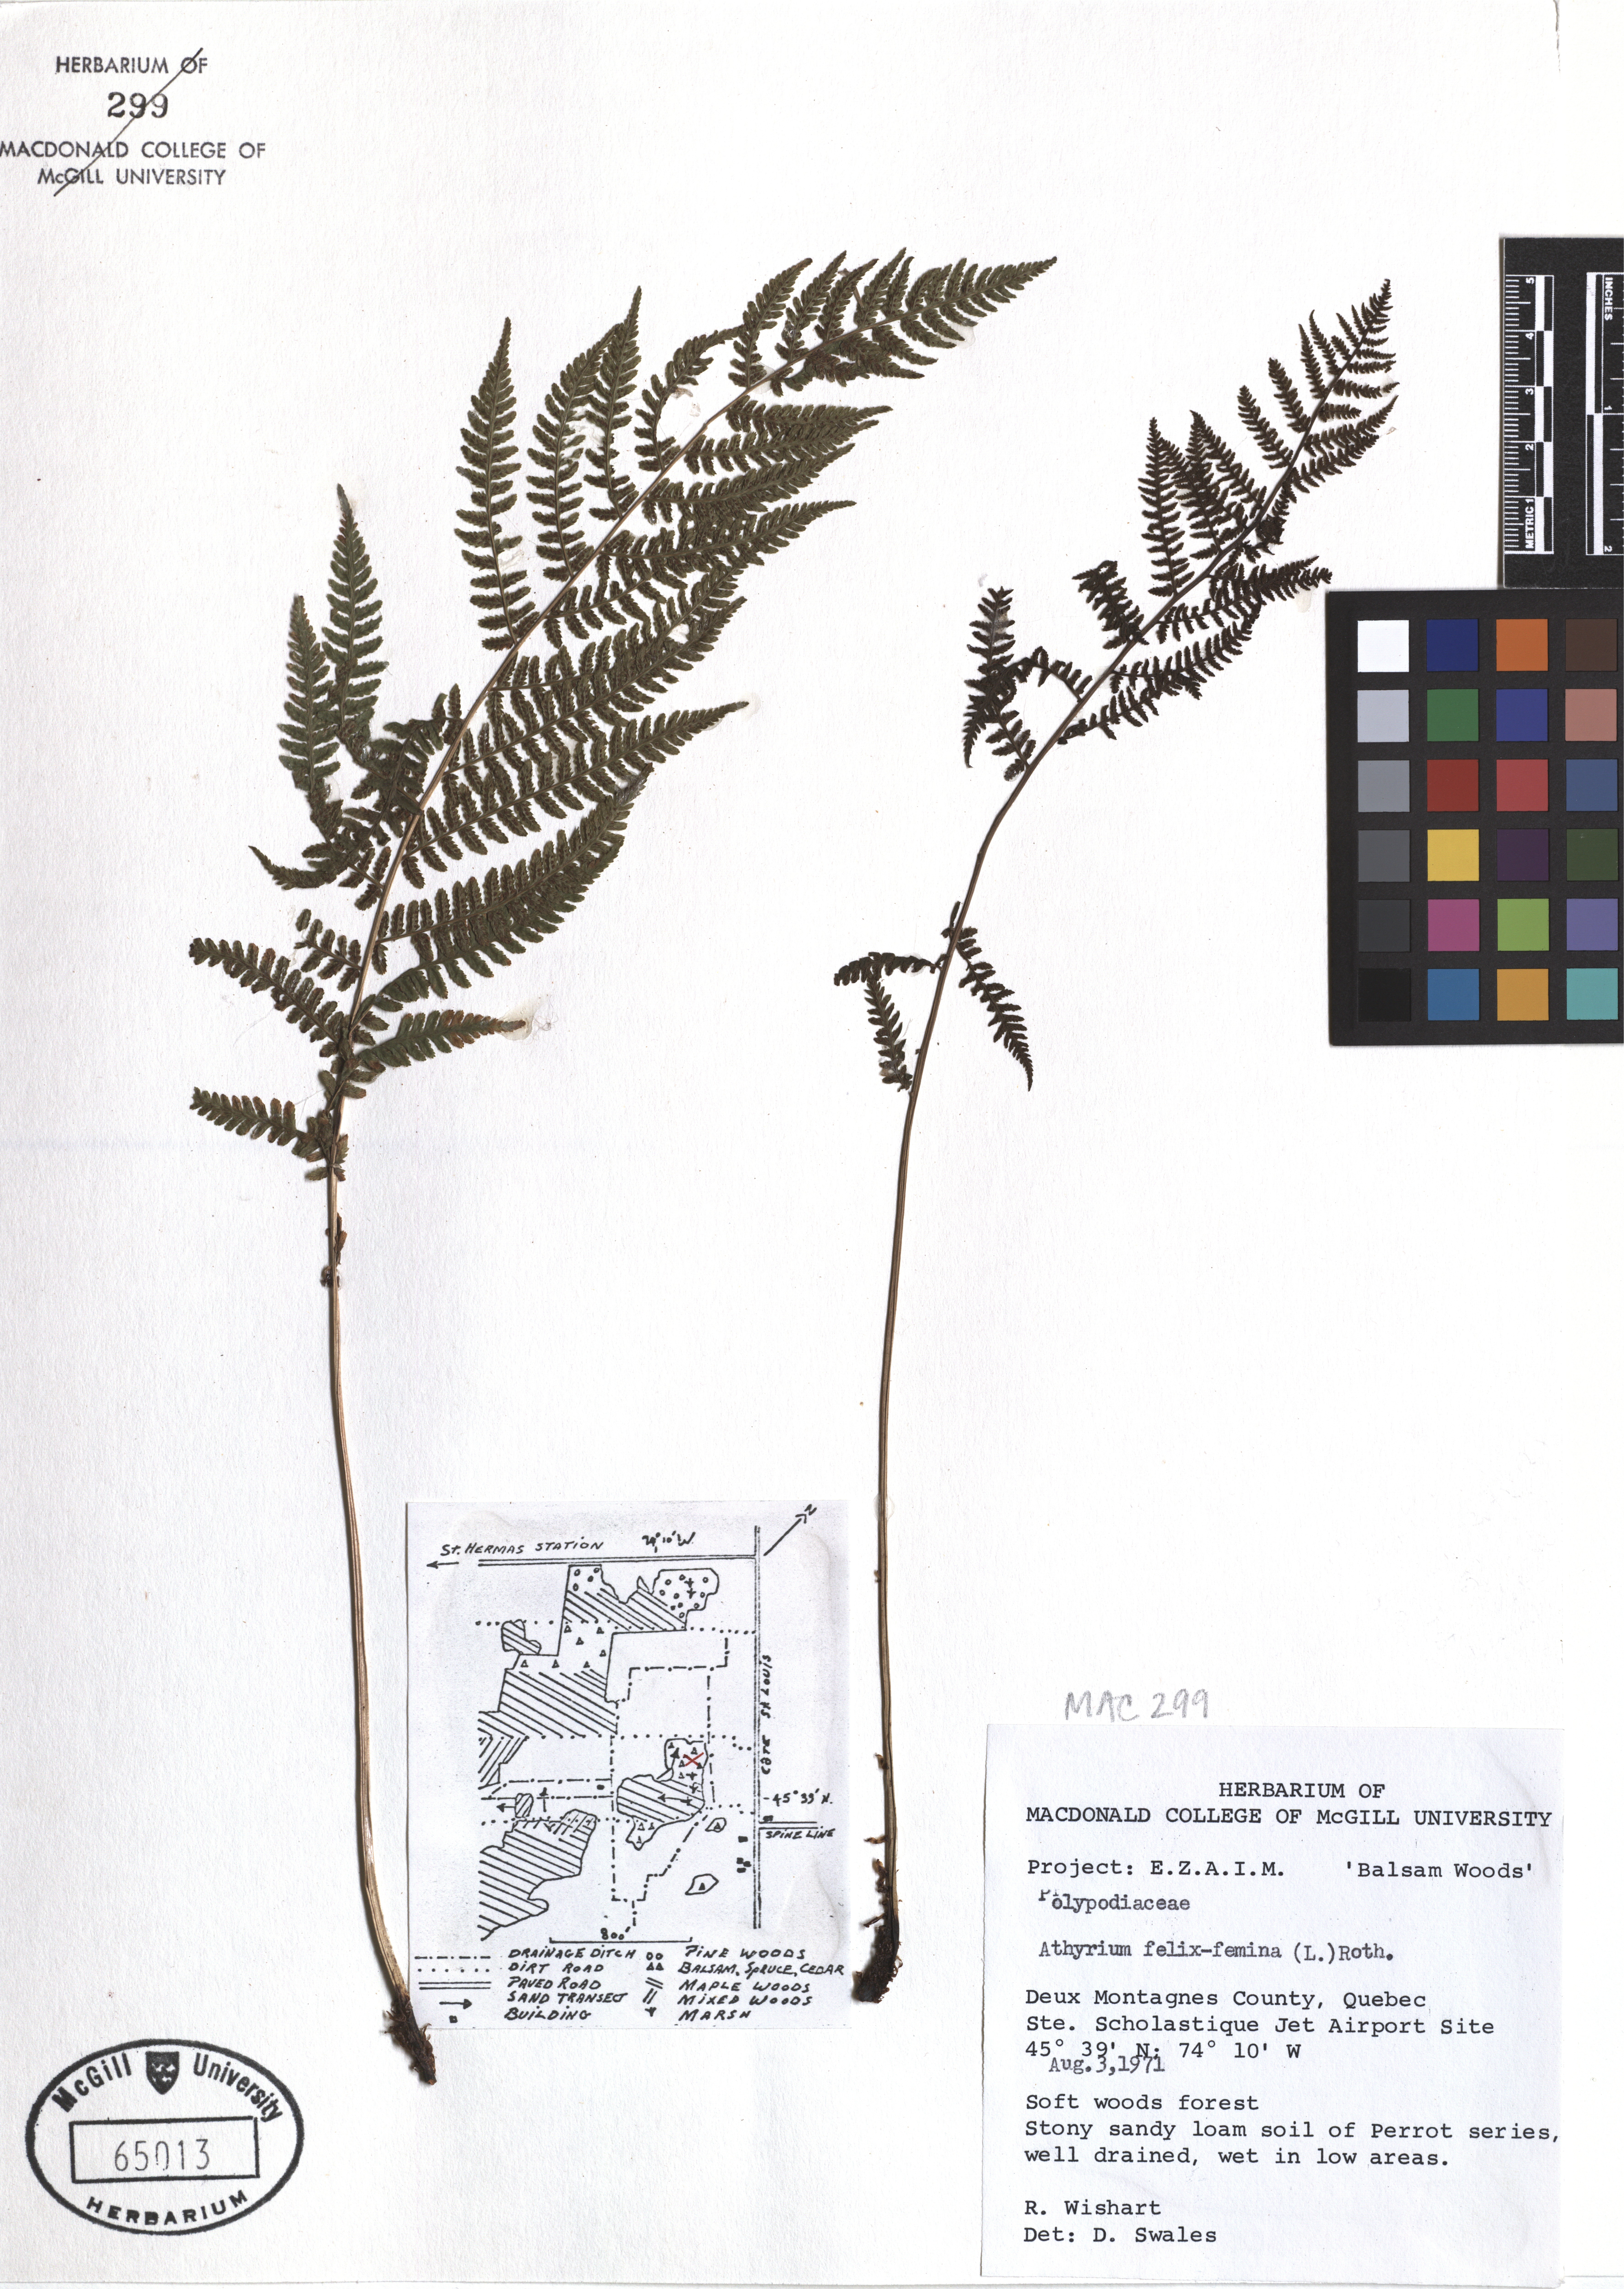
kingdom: Plantae
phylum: Tracheophyta
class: Polypodiopsida
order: Polypodiales
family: Athyriaceae
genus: Athyrium
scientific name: Athyrium filix-femina
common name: Lady fern
